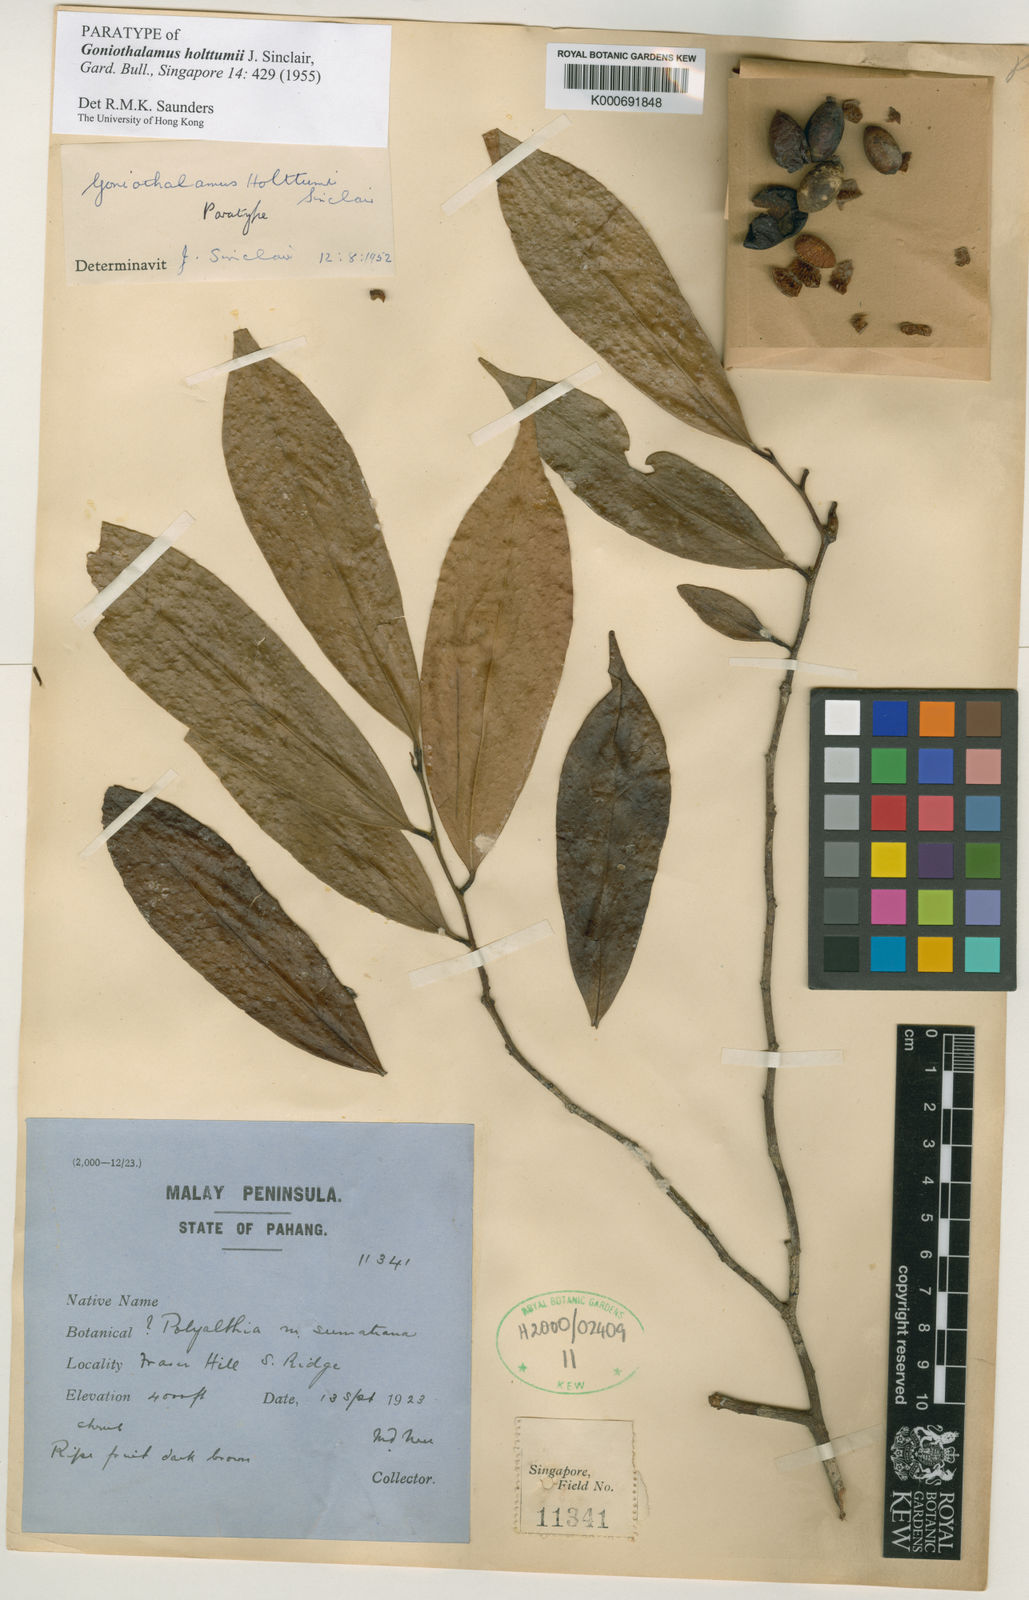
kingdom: Plantae
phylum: Tracheophyta
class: Magnoliopsida
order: Magnoliales
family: Annonaceae
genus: Goniothalamus
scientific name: Goniothalamus holttumii
